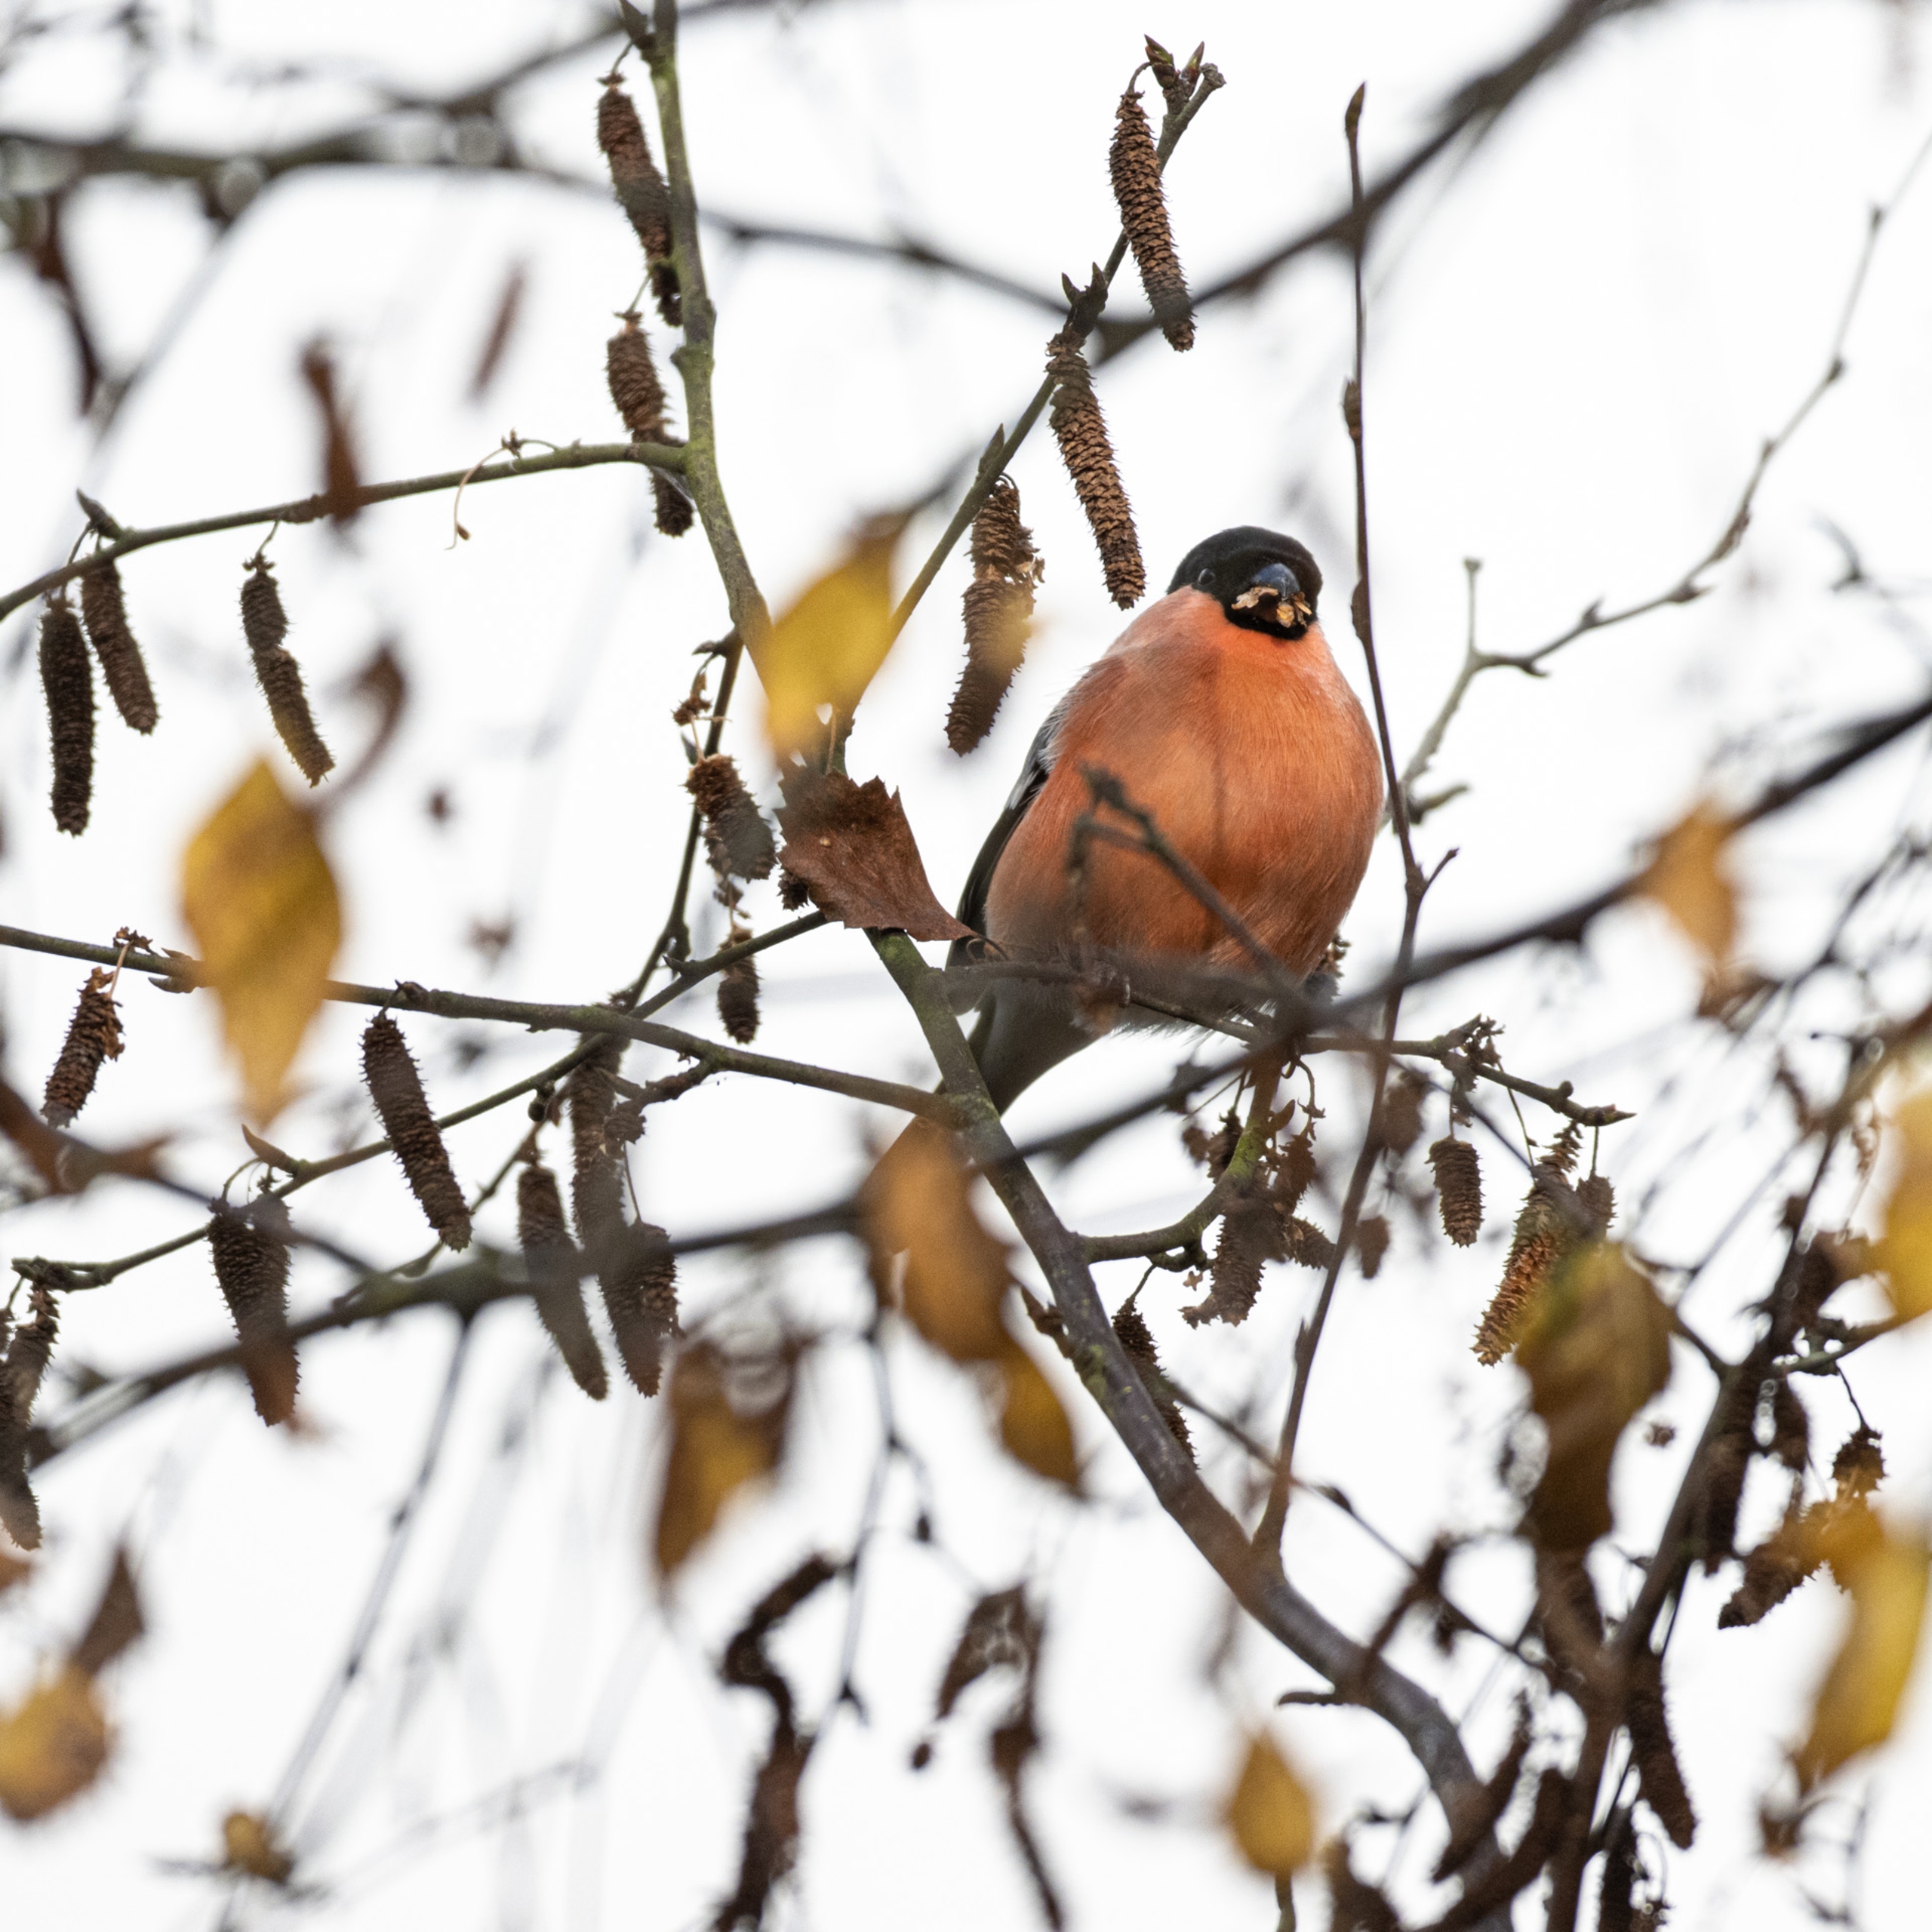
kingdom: Animalia
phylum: Chordata
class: Aves
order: Passeriformes
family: Fringillidae
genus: Pyrrhula
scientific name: Pyrrhula pyrrhula
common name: Dompap
